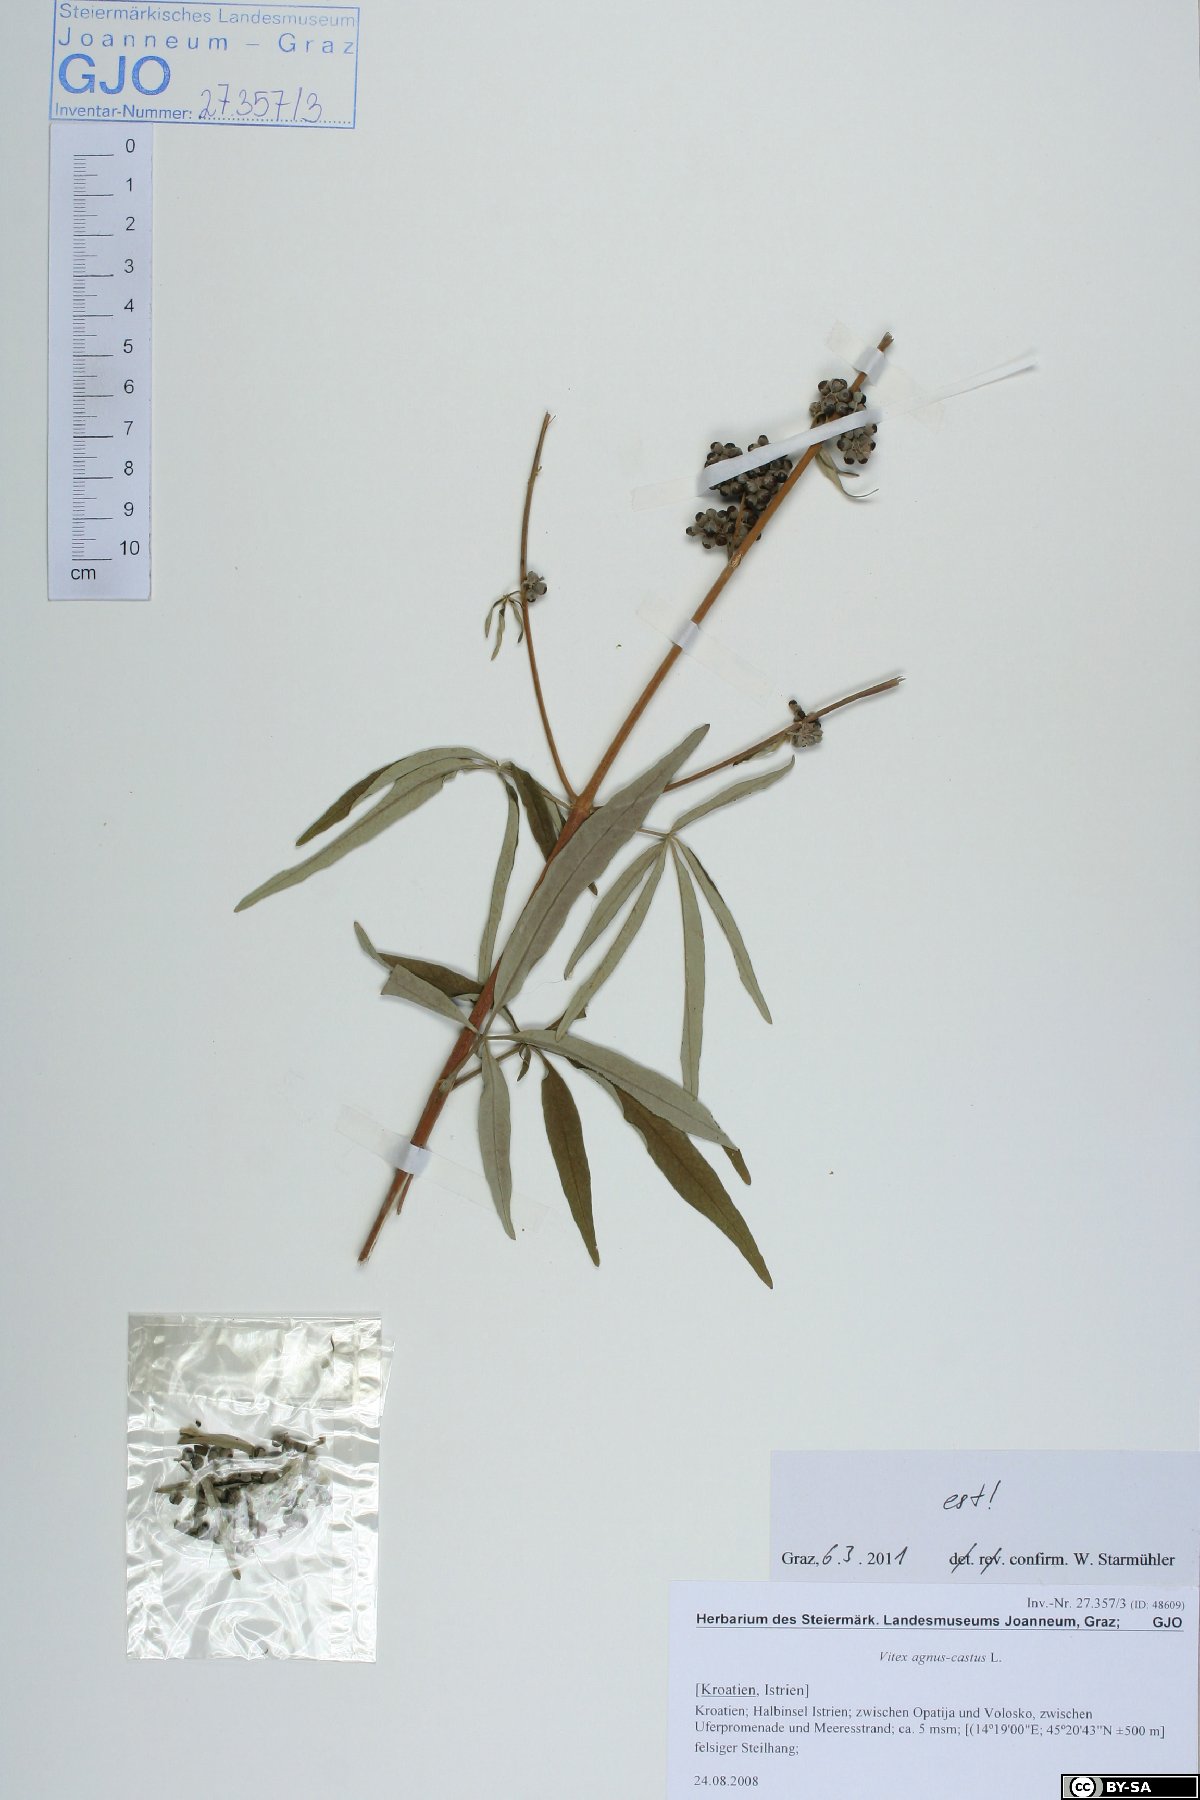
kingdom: Plantae
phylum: Tracheophyta
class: Magnoliopsida
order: Lamiales
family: Lamiaceae
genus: Vitex
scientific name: Vitex agnus-castus
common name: Chasteberry
